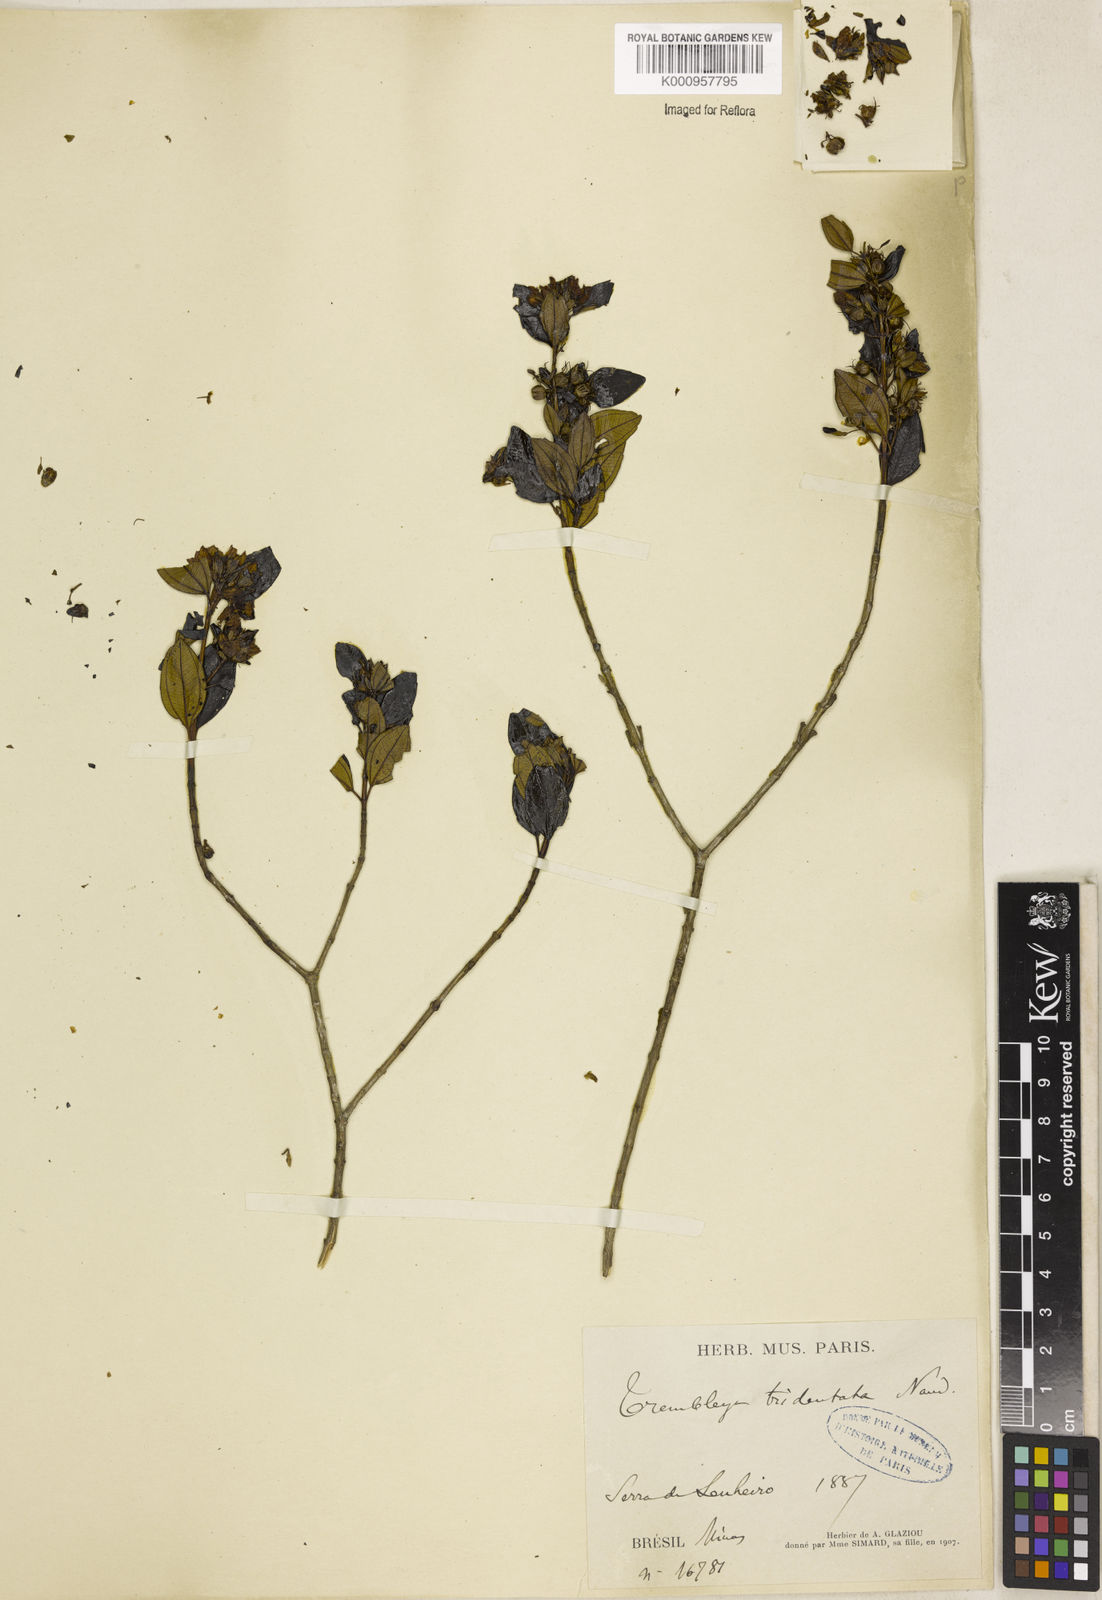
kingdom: Plantae
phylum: Tracheophyta
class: Magnoliopsida
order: Myrtales
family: Melastomataceae
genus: Microlicia
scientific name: Microlicia tridentata
